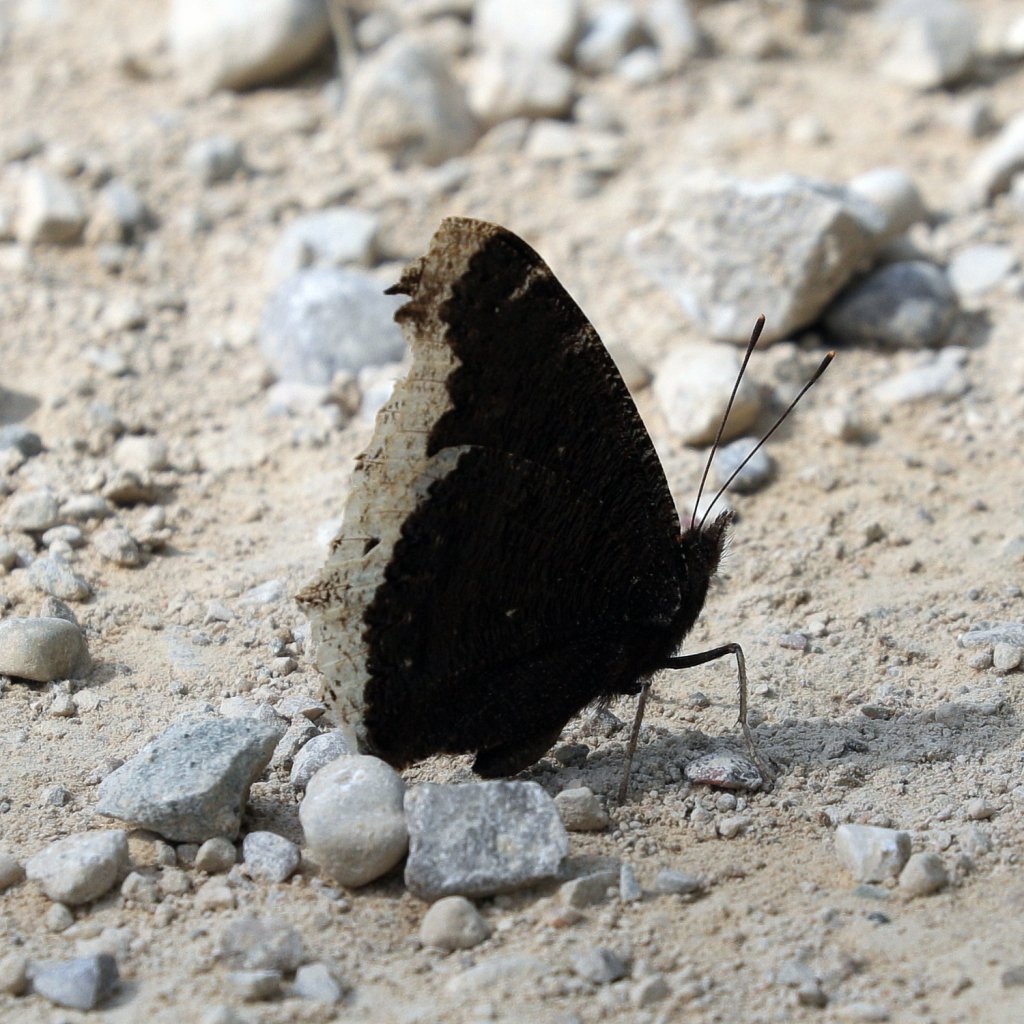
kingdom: Animalia
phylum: Arthropoda
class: Insecta
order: Lepidoptera
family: Nymphalidae
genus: Nymphalis
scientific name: Nymphalis antiopa
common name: Mourning Cloak
